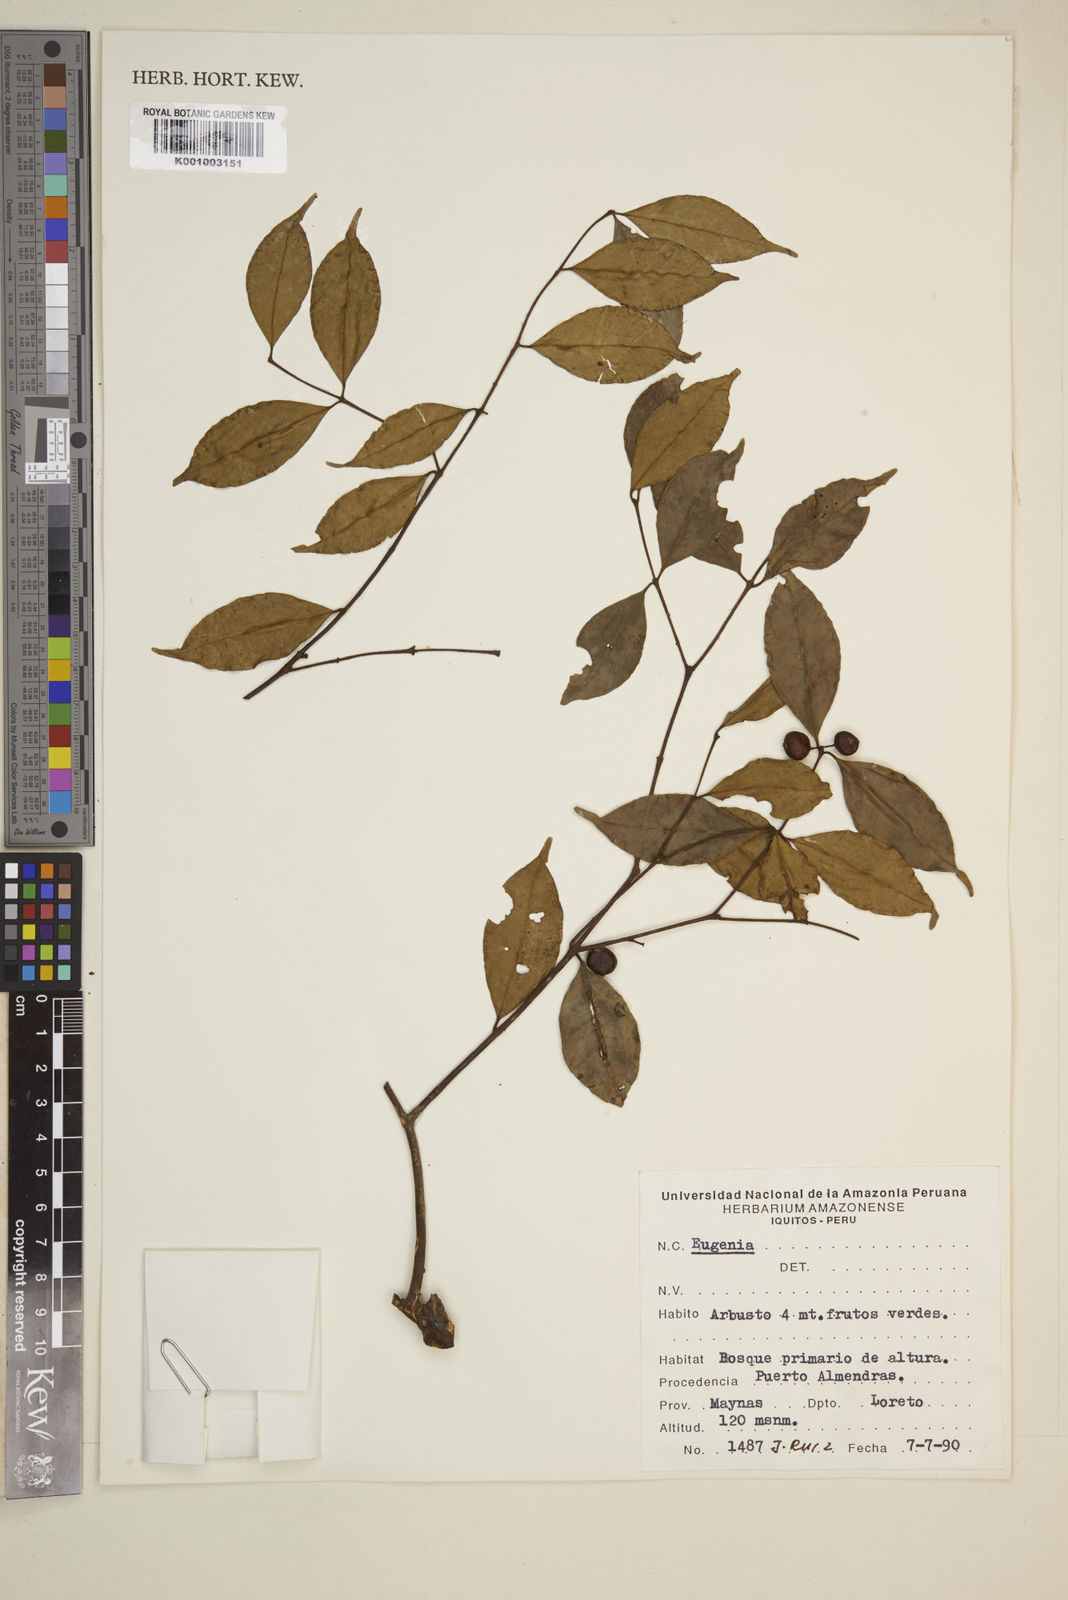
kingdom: Plantae
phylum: Tracheophyta
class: Magnoliopsida
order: Myrtales
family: Myrtaceae
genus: Eugenia
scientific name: Eugenia
